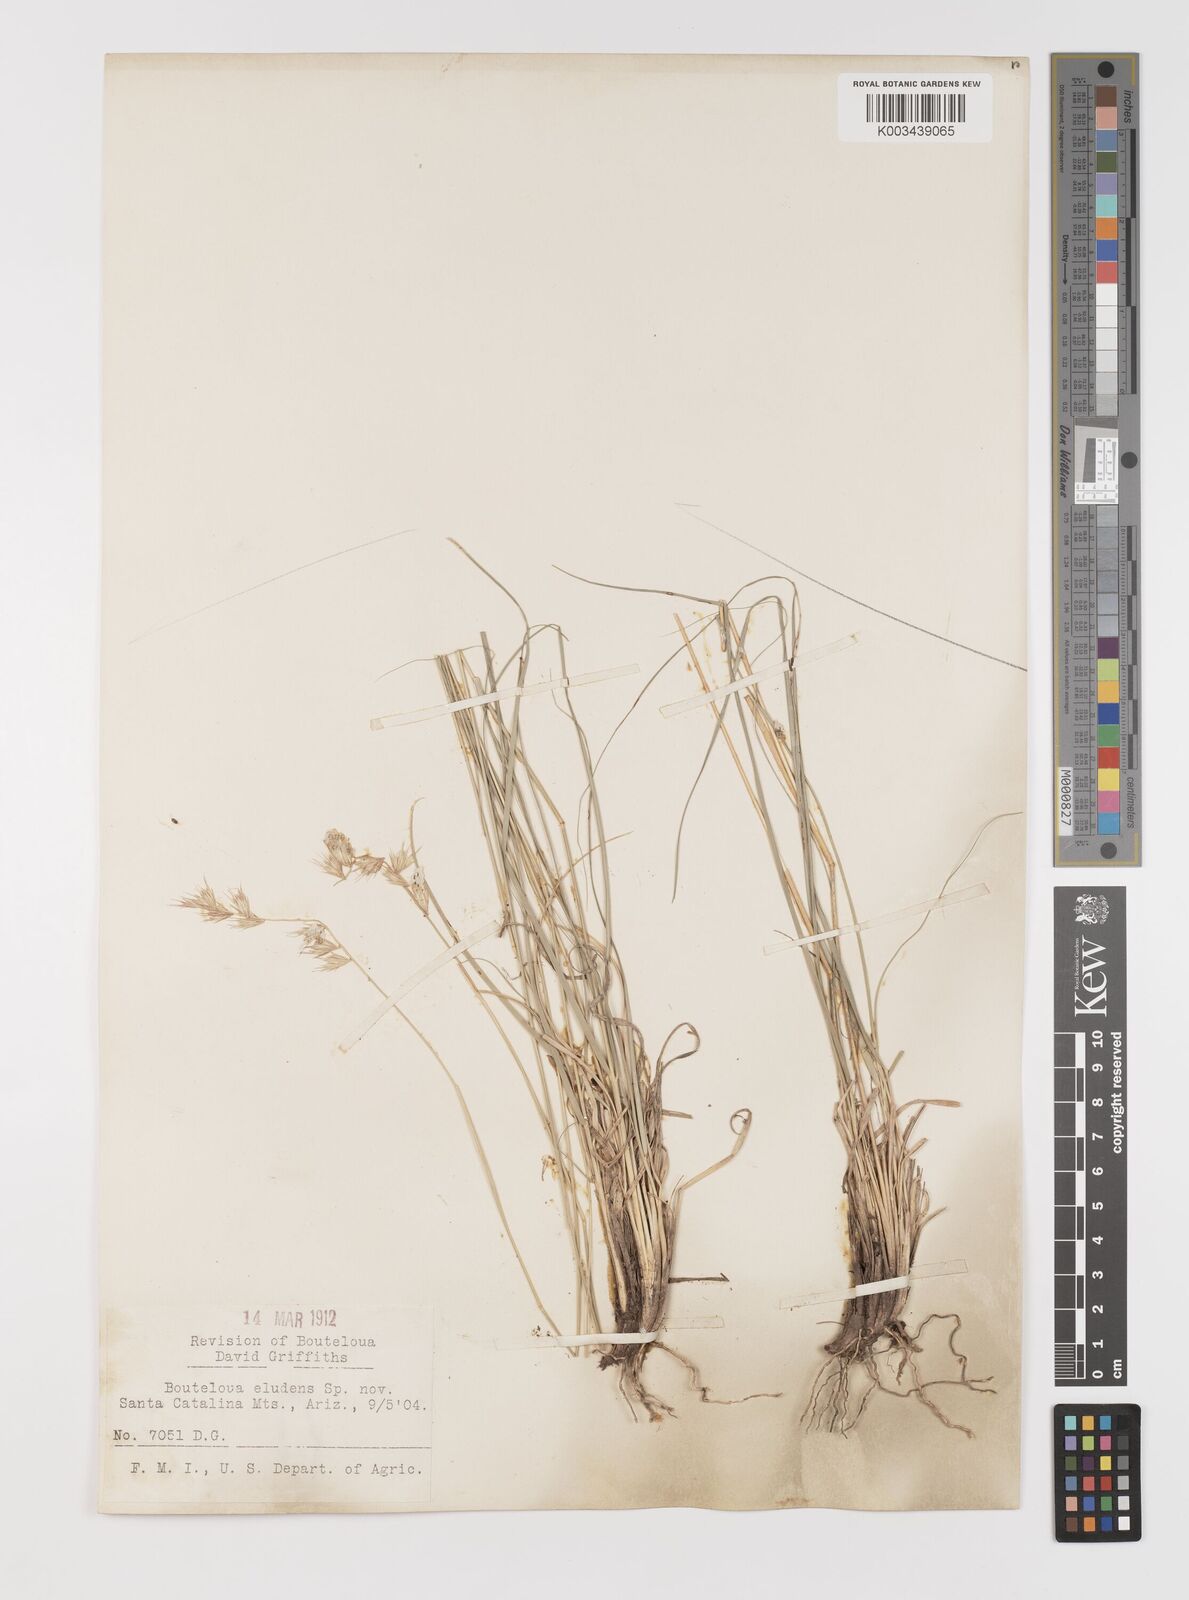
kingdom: Plantae
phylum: Tracheophyta
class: Liliopsida
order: Poales
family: Poaceae
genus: Bouteloua
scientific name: Bouteloua eludens
